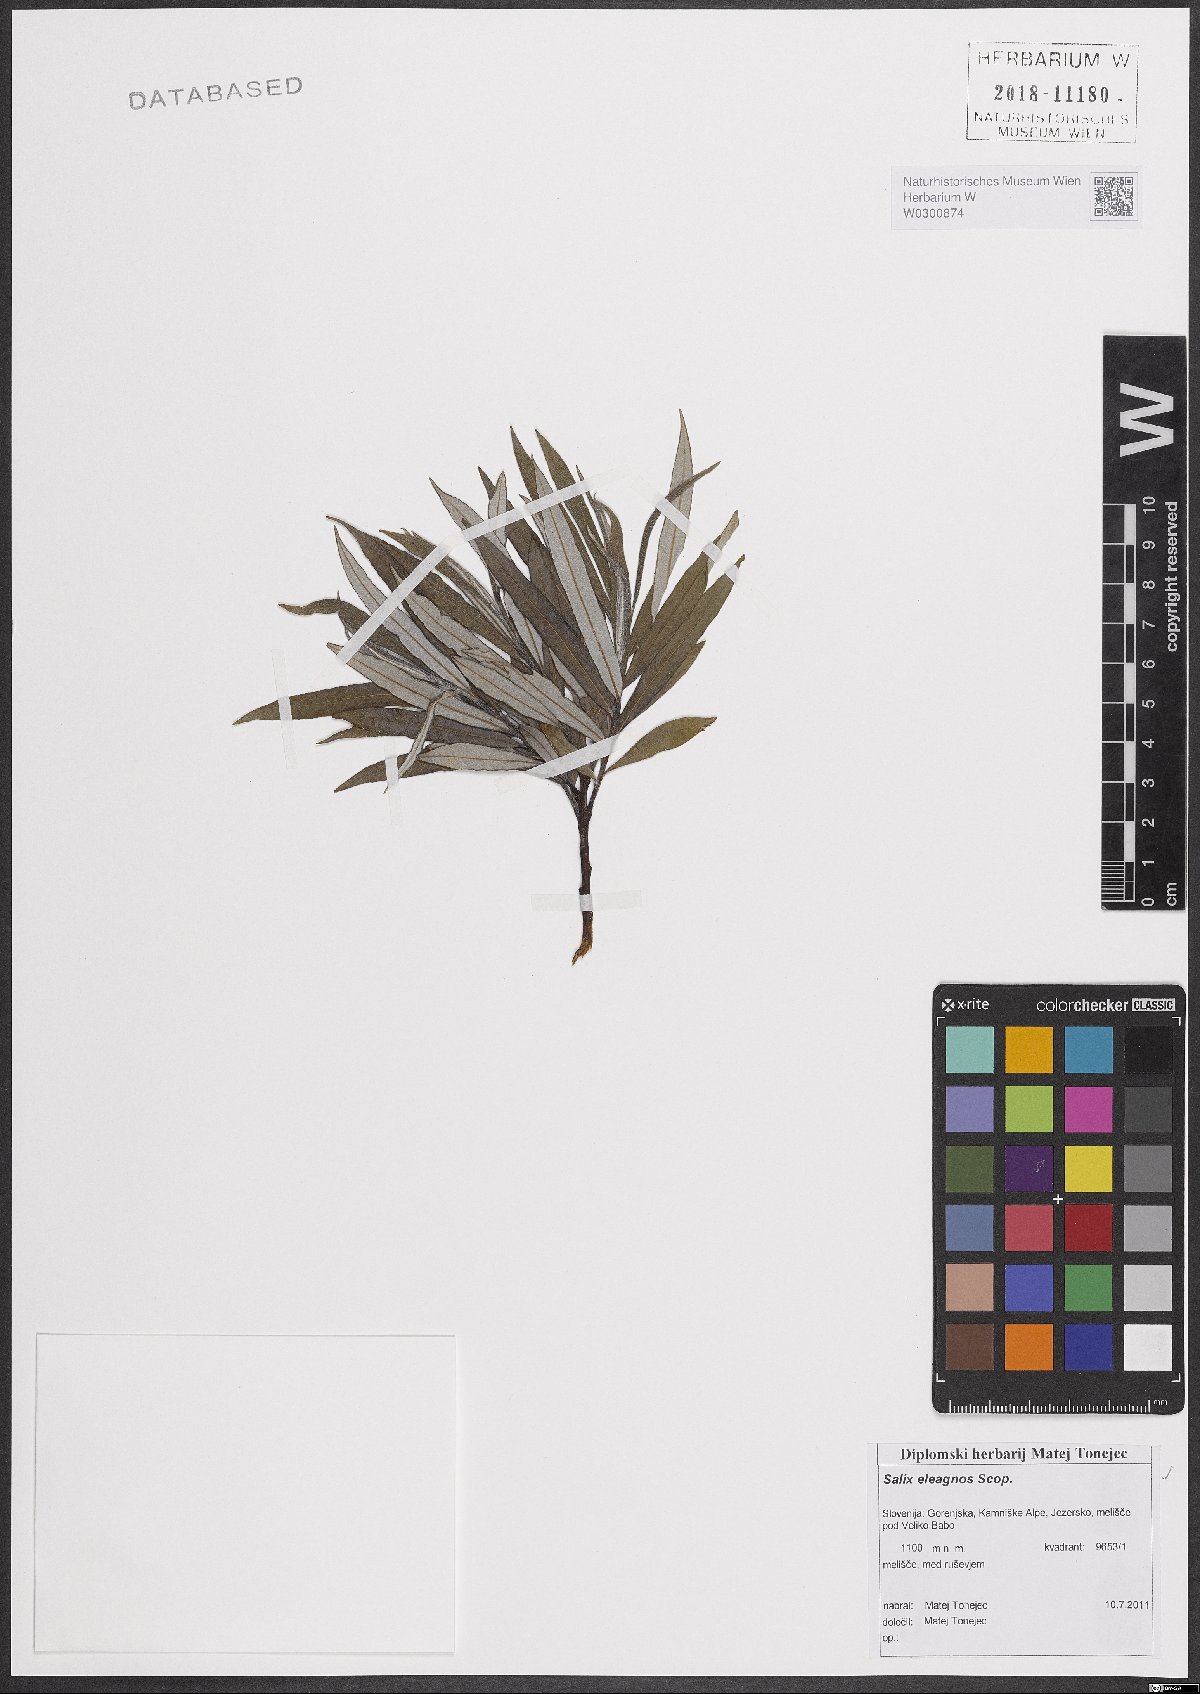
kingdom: Plantae
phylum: Tracheophyta
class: Magnoliopsida
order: Malpighiales
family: Salicaceae
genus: Salix
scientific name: Salix eleagnos
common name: Elaeagnus willow
